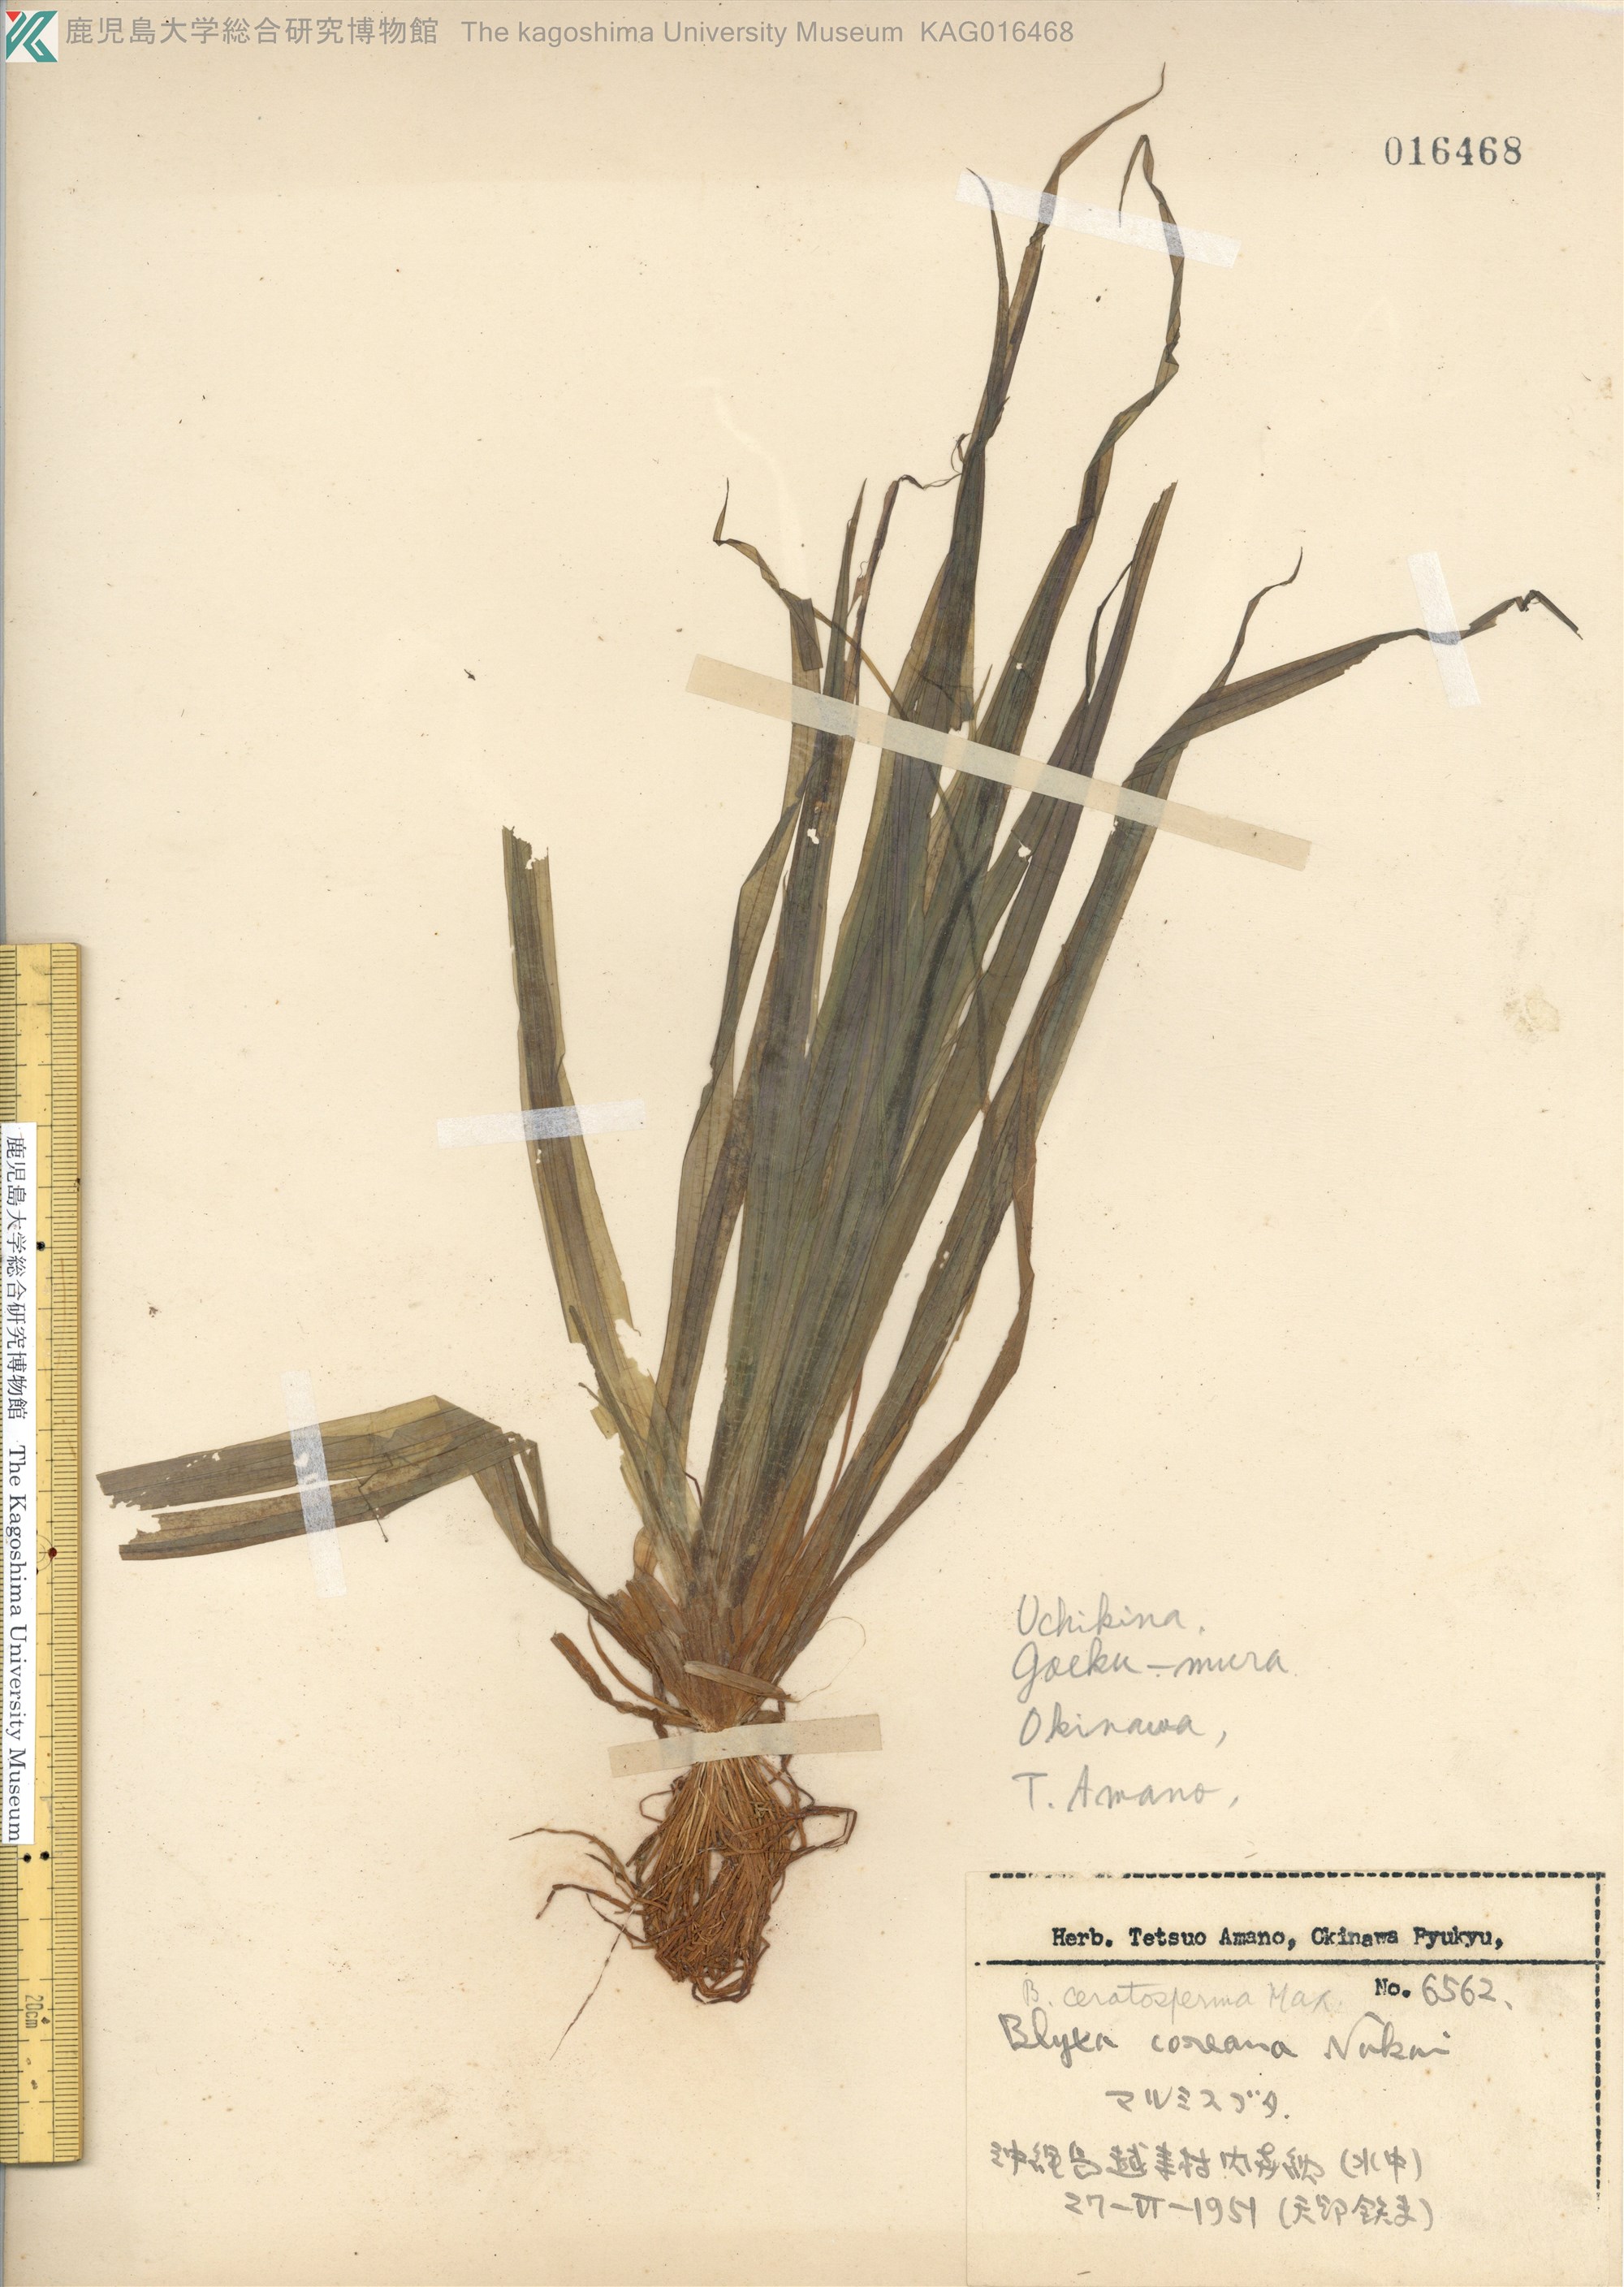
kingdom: Plantae
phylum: Tracheophyta
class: Liliopsida
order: Alismatales
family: Hydrocharitaceae
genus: Blyxa
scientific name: Blyxa aubertii
